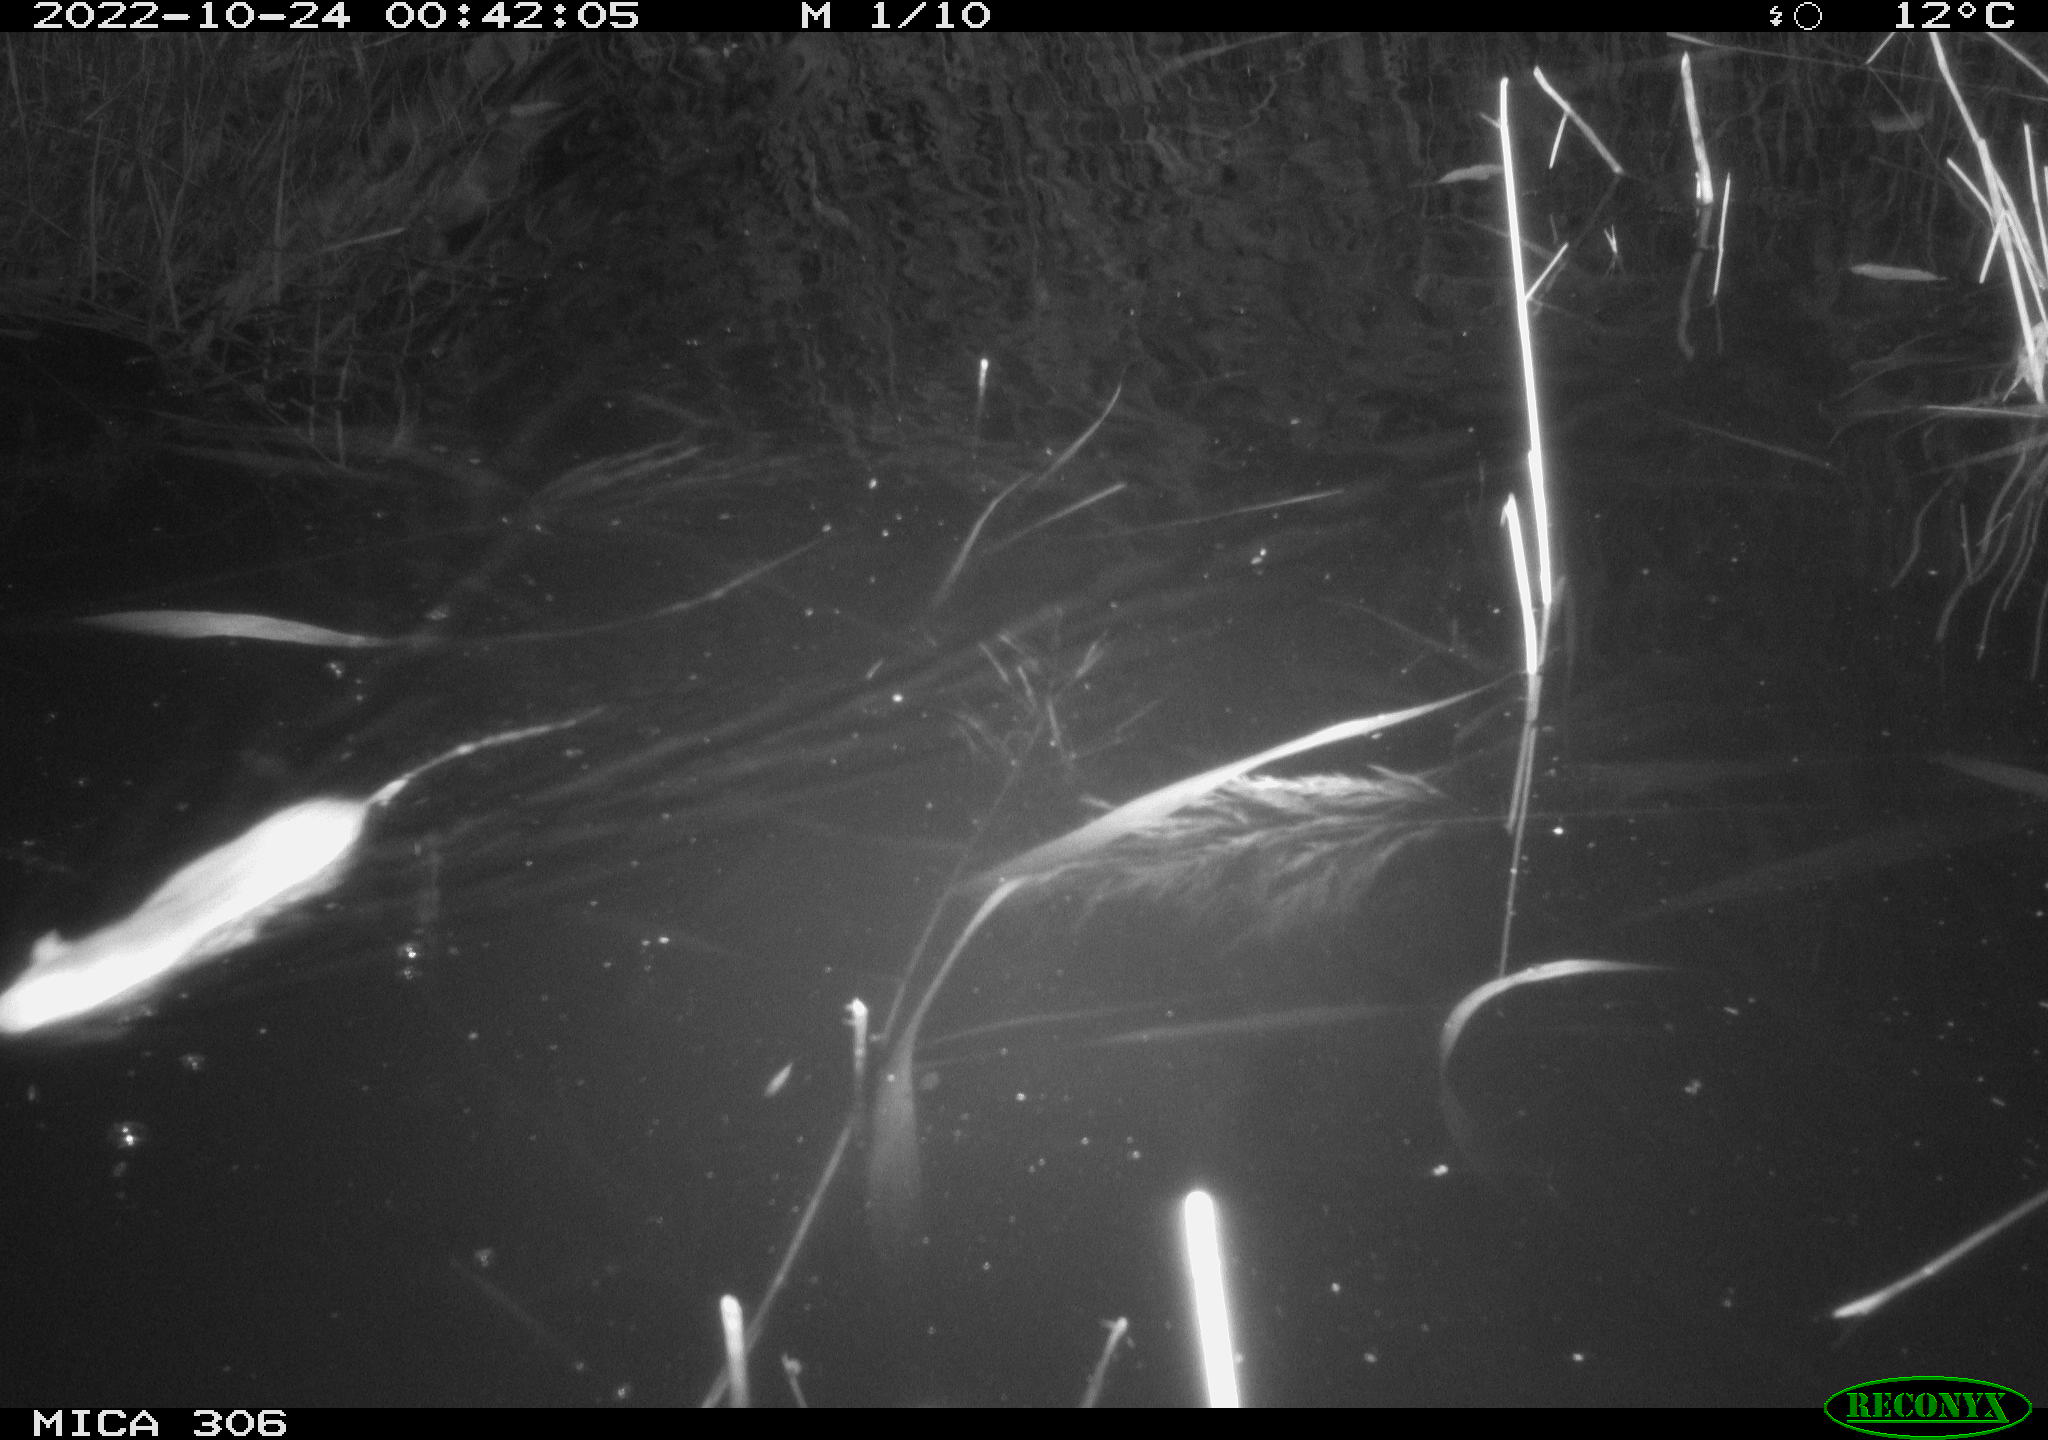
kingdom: Animalia
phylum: Chordata
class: Mammalia
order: Rodentia
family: Muridae
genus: Rattus
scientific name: Rattus norvegicus
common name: Brown rat
